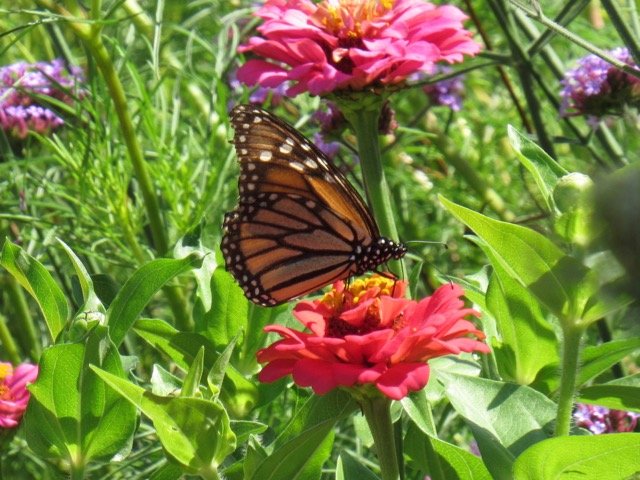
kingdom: Animalia
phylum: Arthropoda
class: Insecta
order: Lepidoptera
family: Nymphalidae
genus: Danaus
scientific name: Danaus plexippus
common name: Monarch
